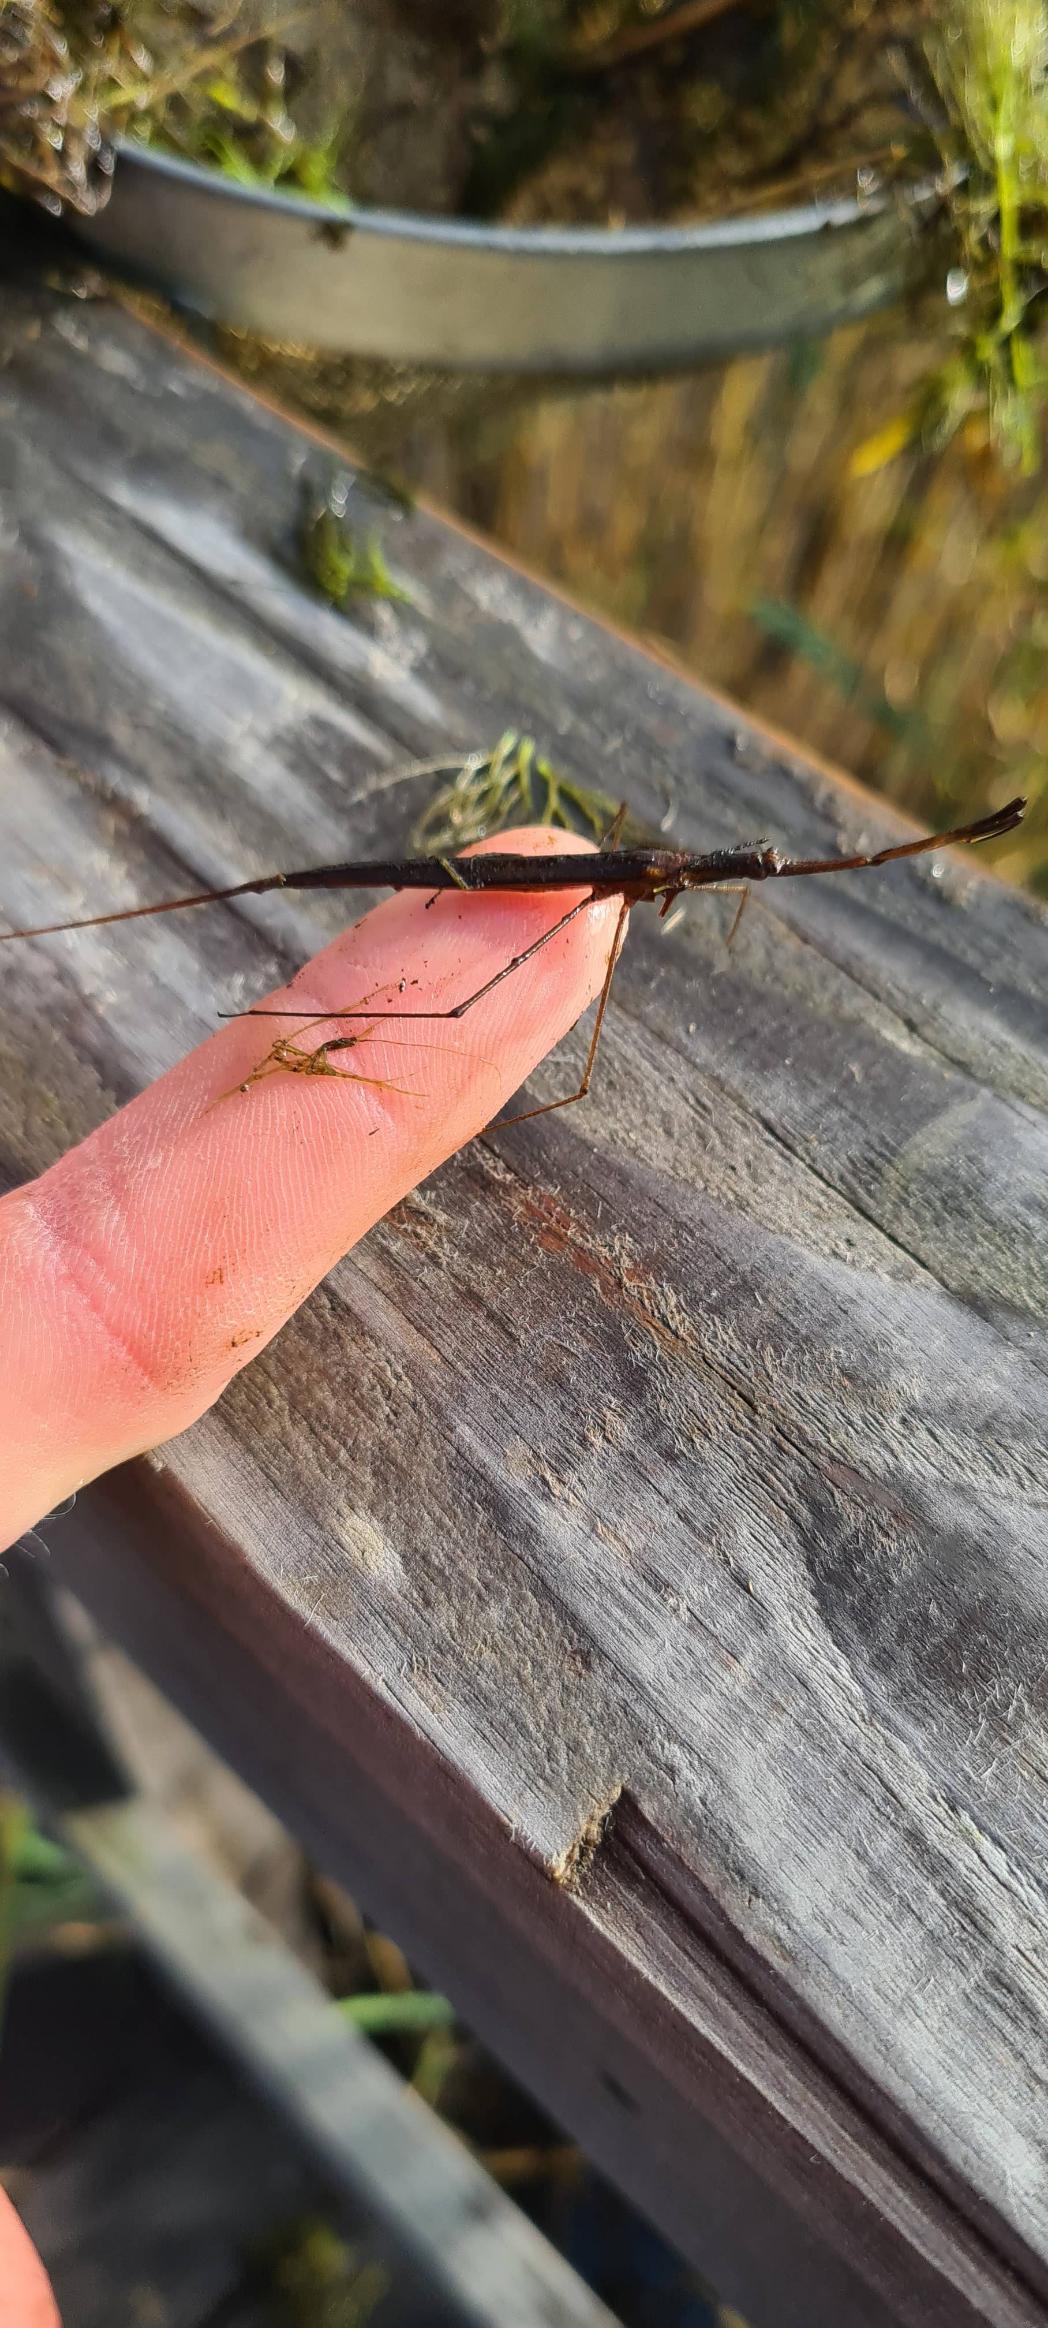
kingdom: Animalia
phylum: Arthropoda
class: Insecta
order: Hemiptera
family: Nepidae
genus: Ranatra
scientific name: Ranatra linearis
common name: Stavtæge
